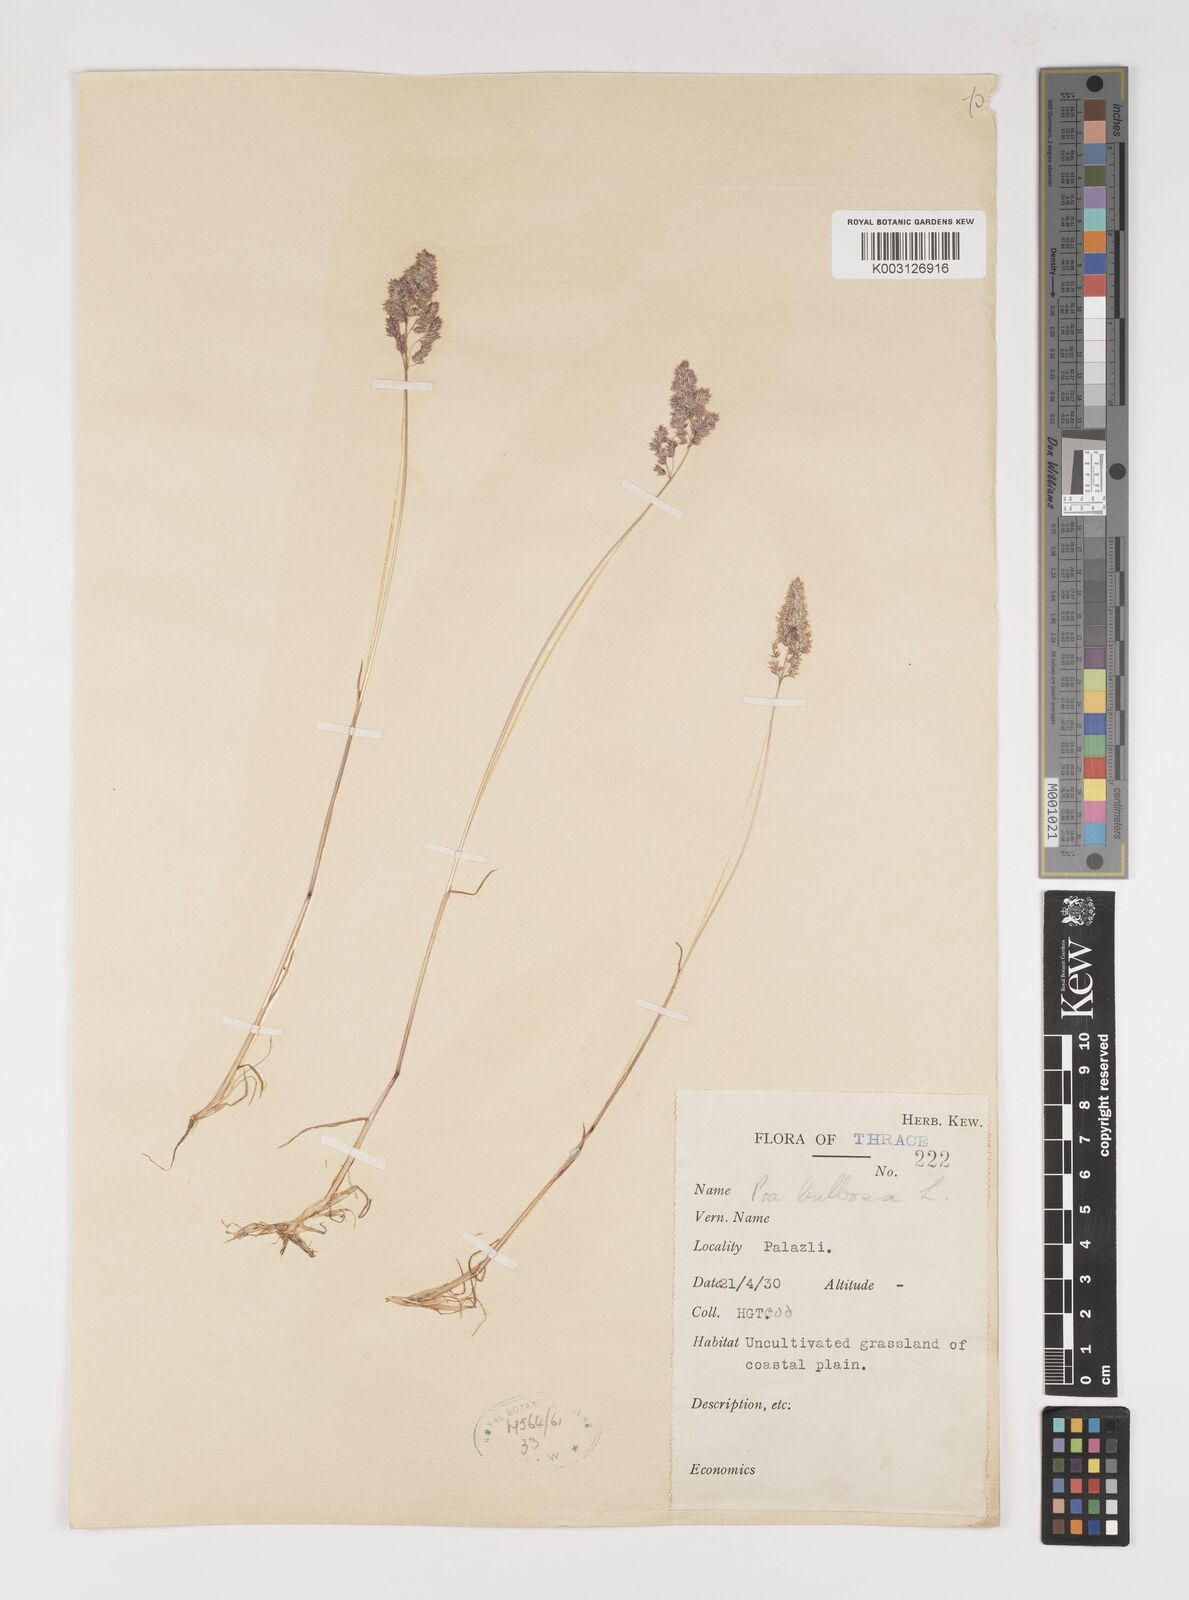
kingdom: Plantae
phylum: Tracheophyta
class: Liliopsida
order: Poales
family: Poaceae
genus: Poa
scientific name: Poa bulbosa
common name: Bulbous bluegrass
